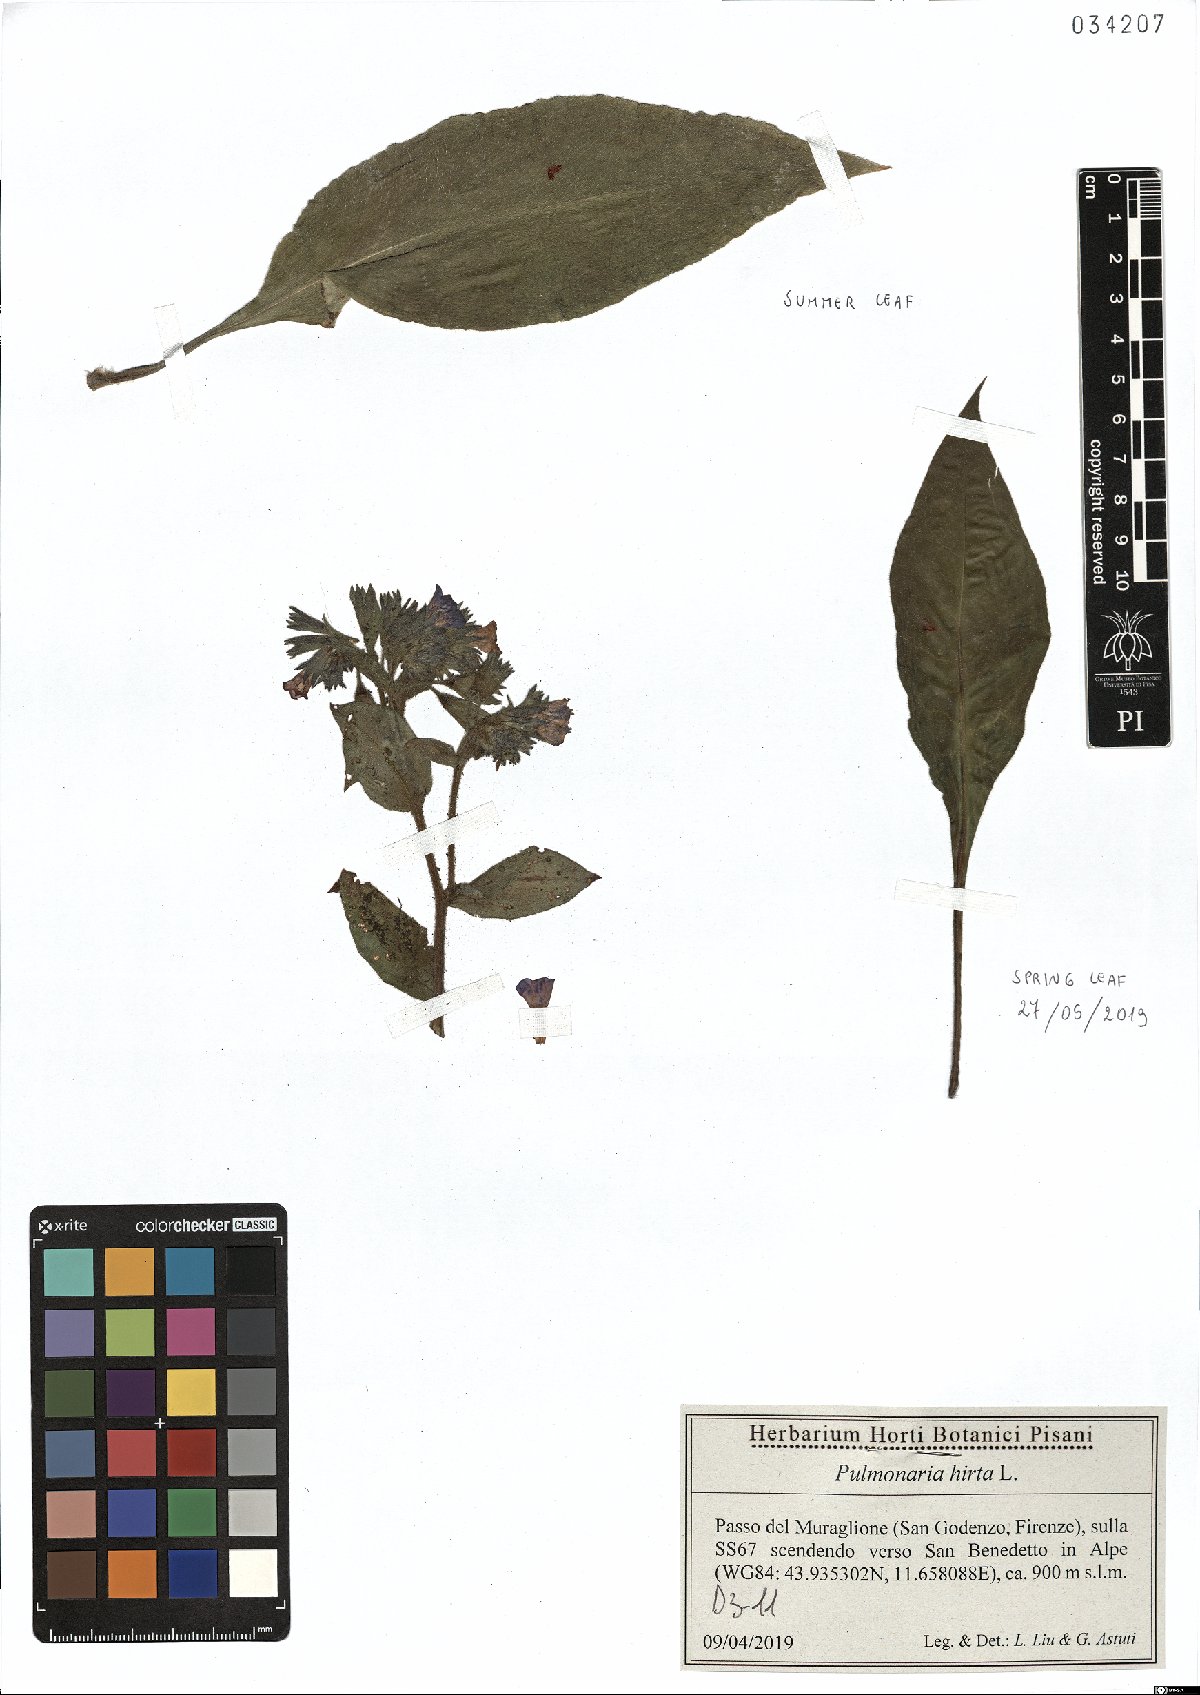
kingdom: Plantae
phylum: Tracheophyta
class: Magnoliopsida
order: Boraginales
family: Boraginaceae
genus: Pulmonaria
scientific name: Pulmonaria hirta
